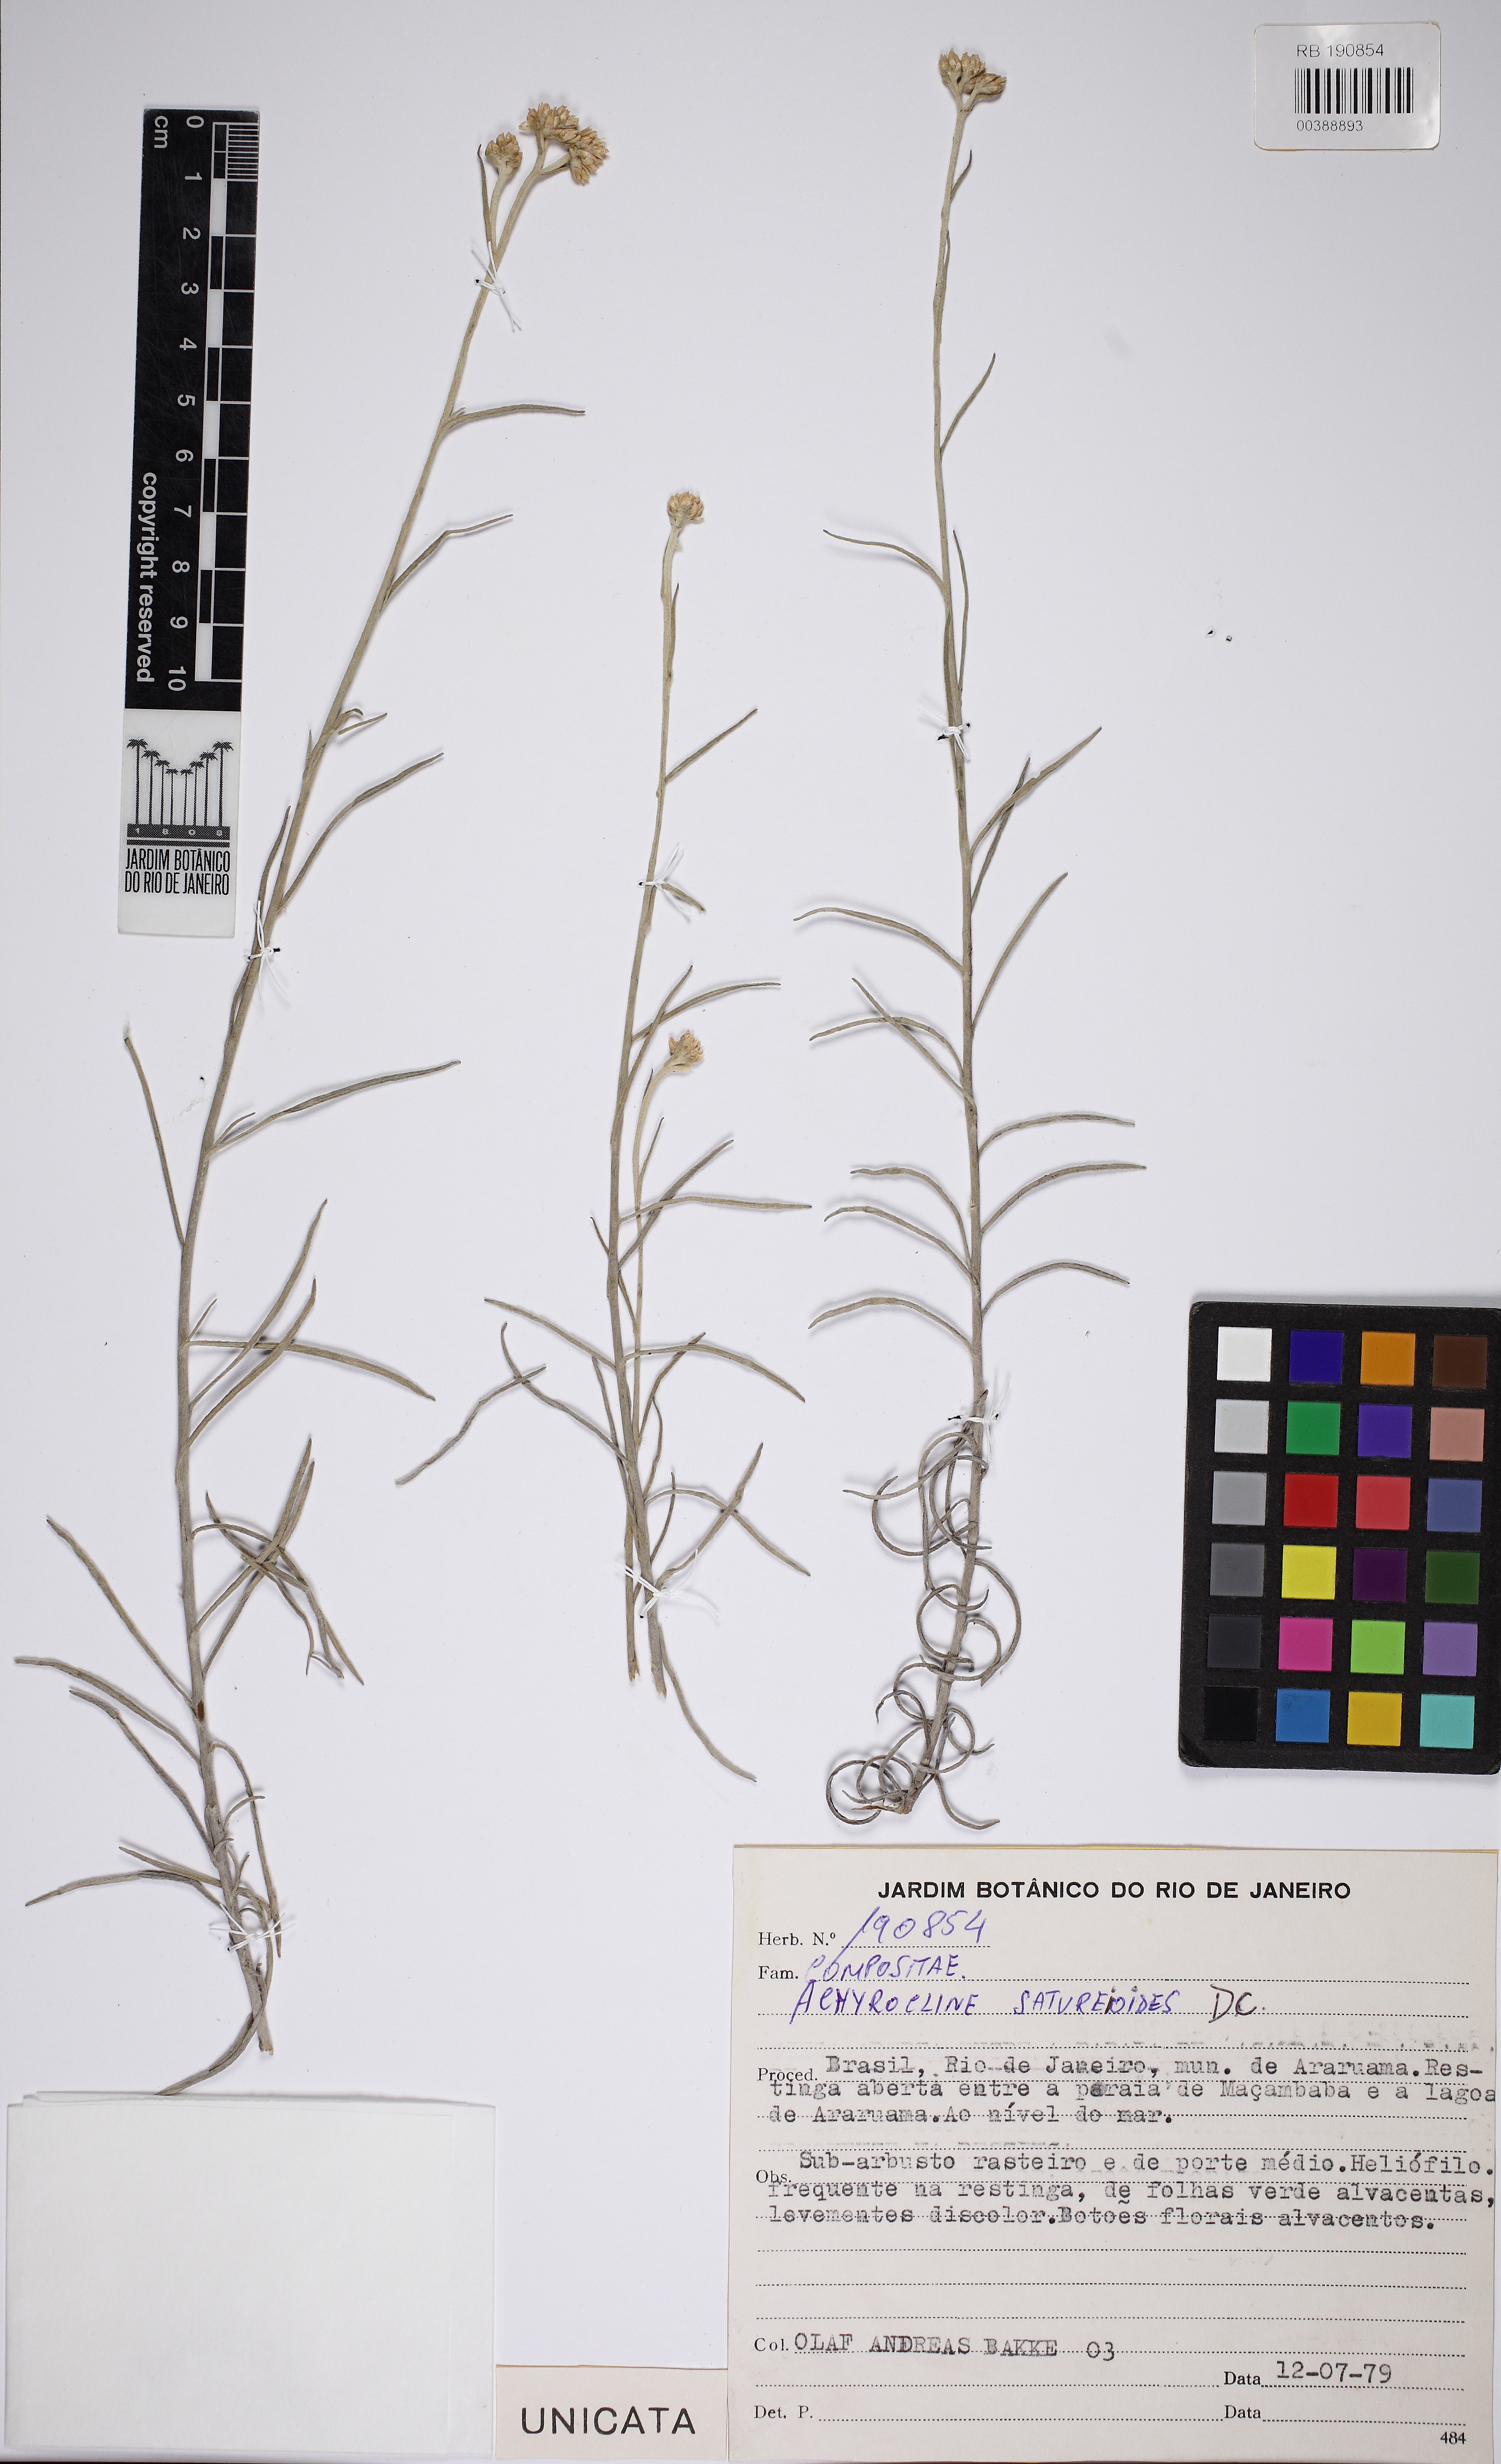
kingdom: Plantae
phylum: Tracheophyta
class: Magnoliopsida
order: Asterales
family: Asteraceae
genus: Achyrocline
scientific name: Achyrocline satureioides
